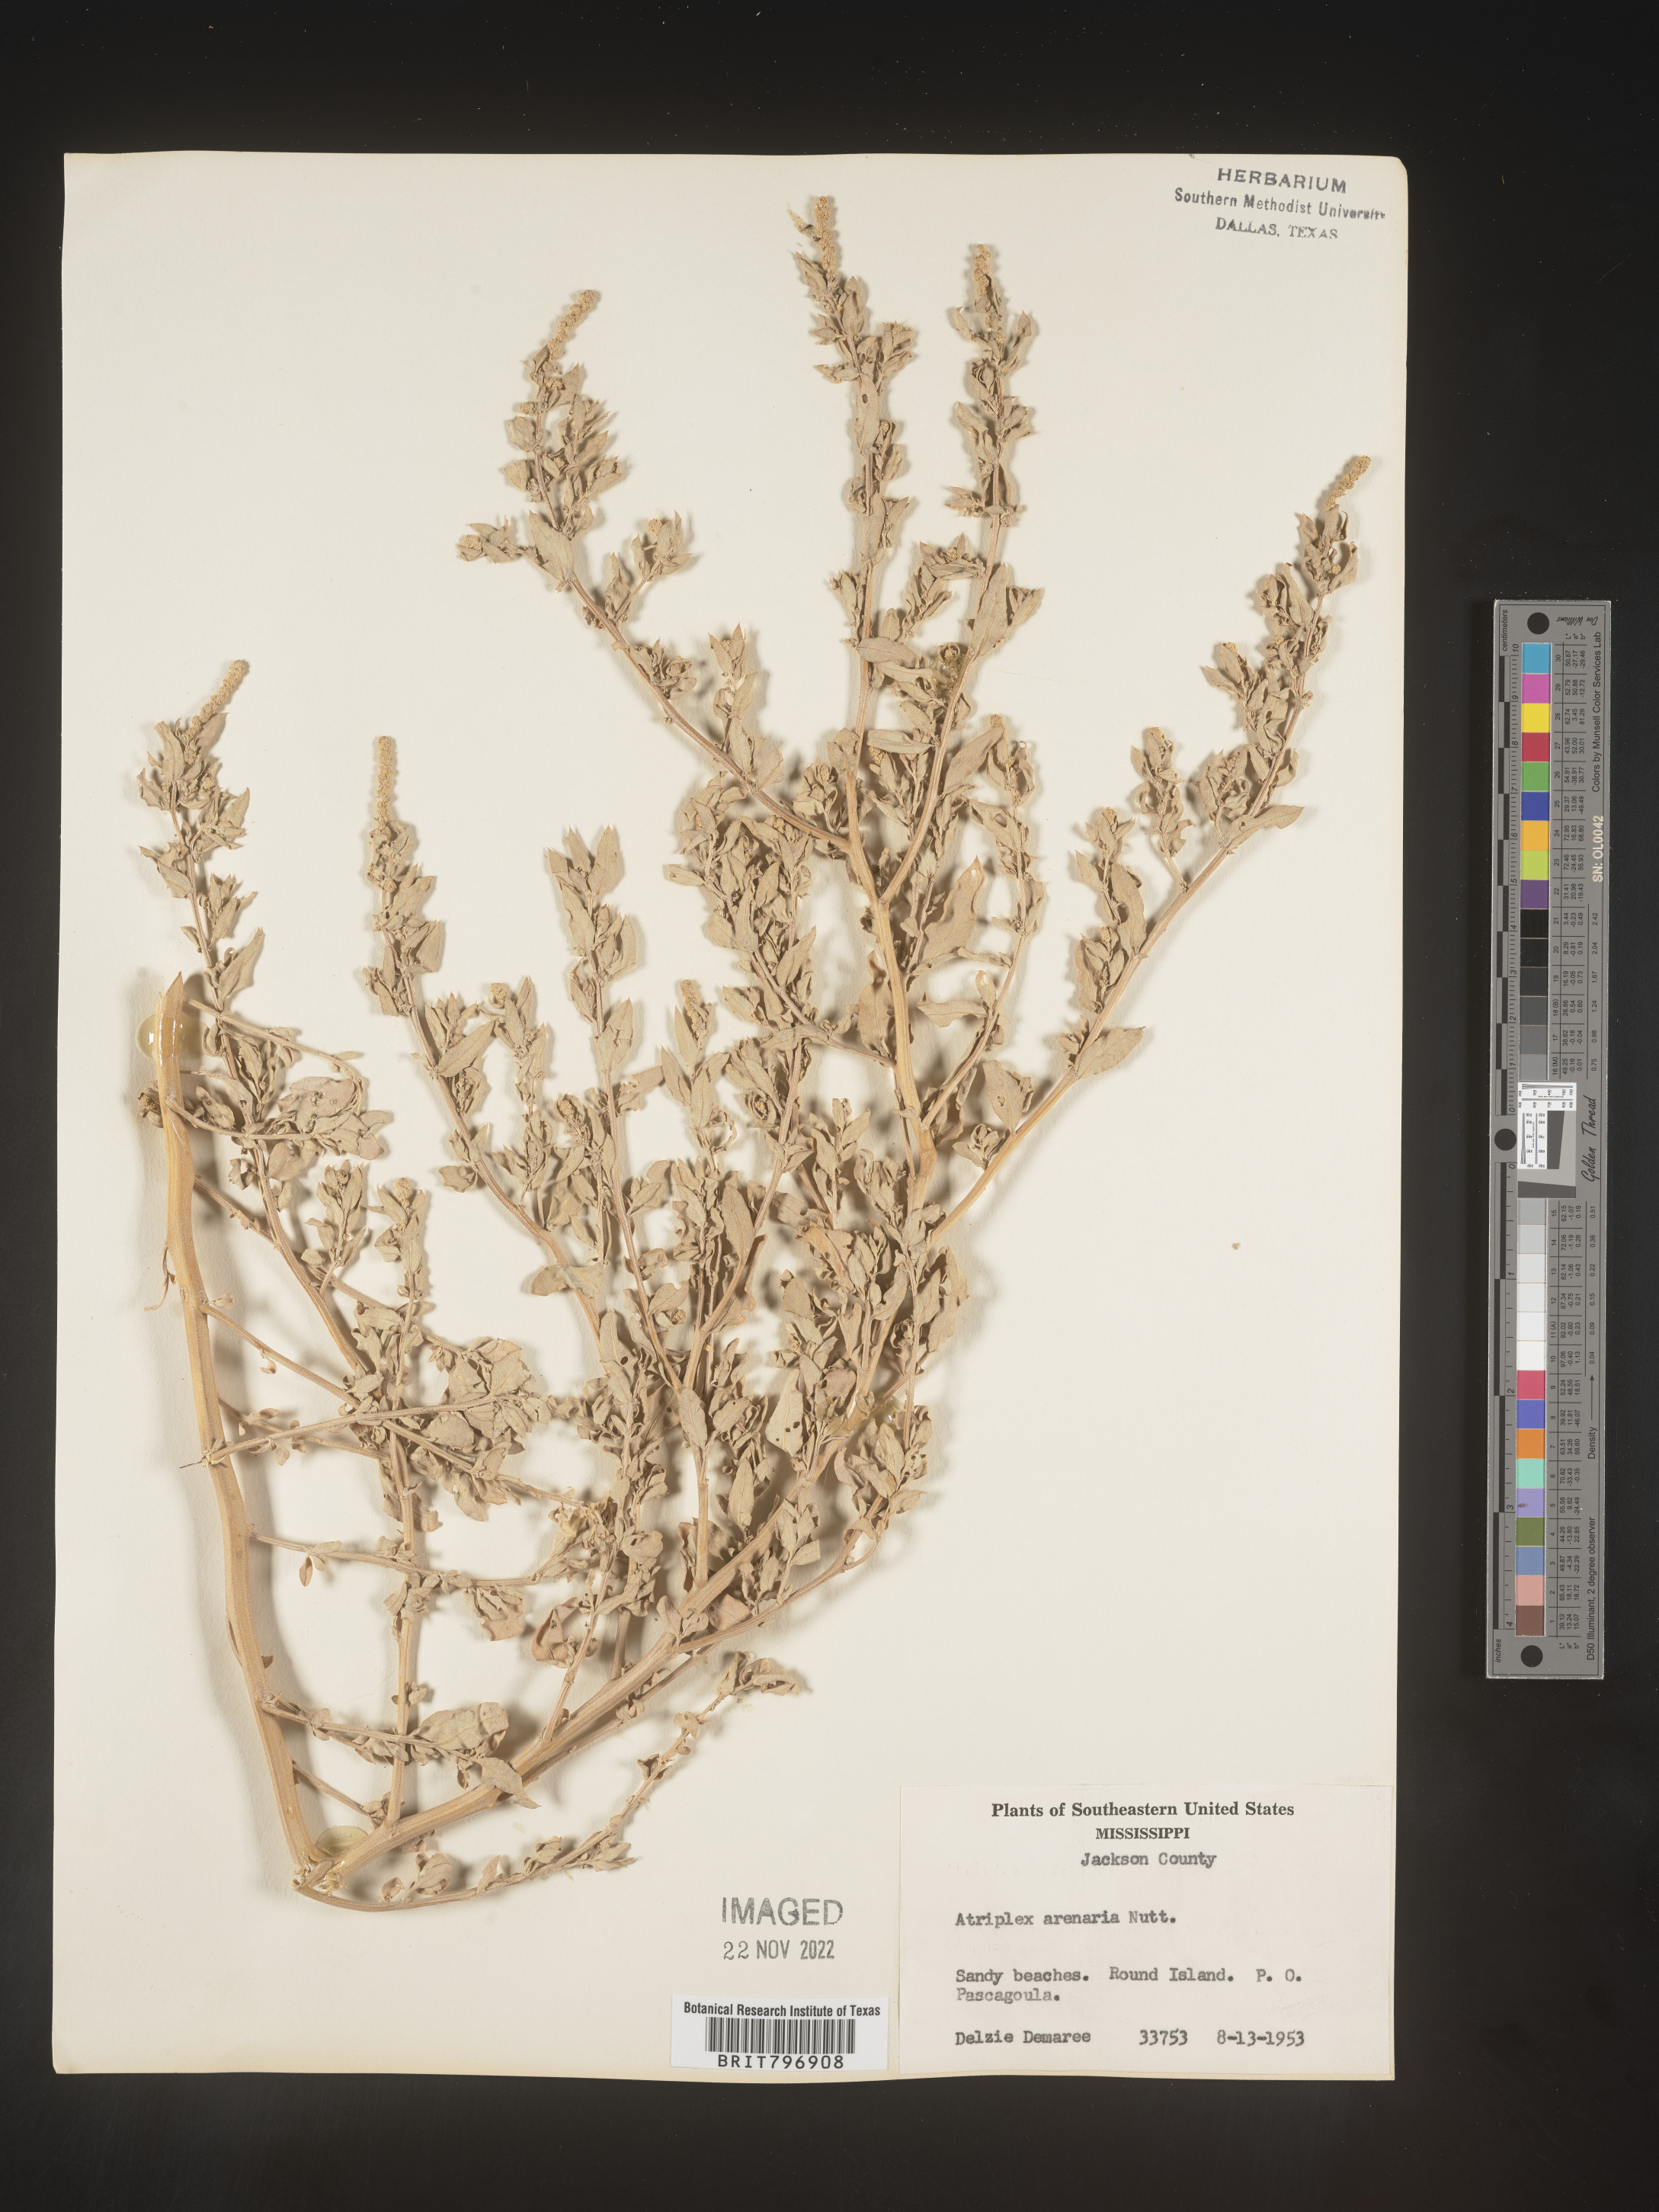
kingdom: Plantae
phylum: Tracheophyta
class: Magnoliopsida
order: Caryophyllales
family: Amaranthaceae
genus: Atriplex
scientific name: Atriplex mucronata
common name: Quelite
